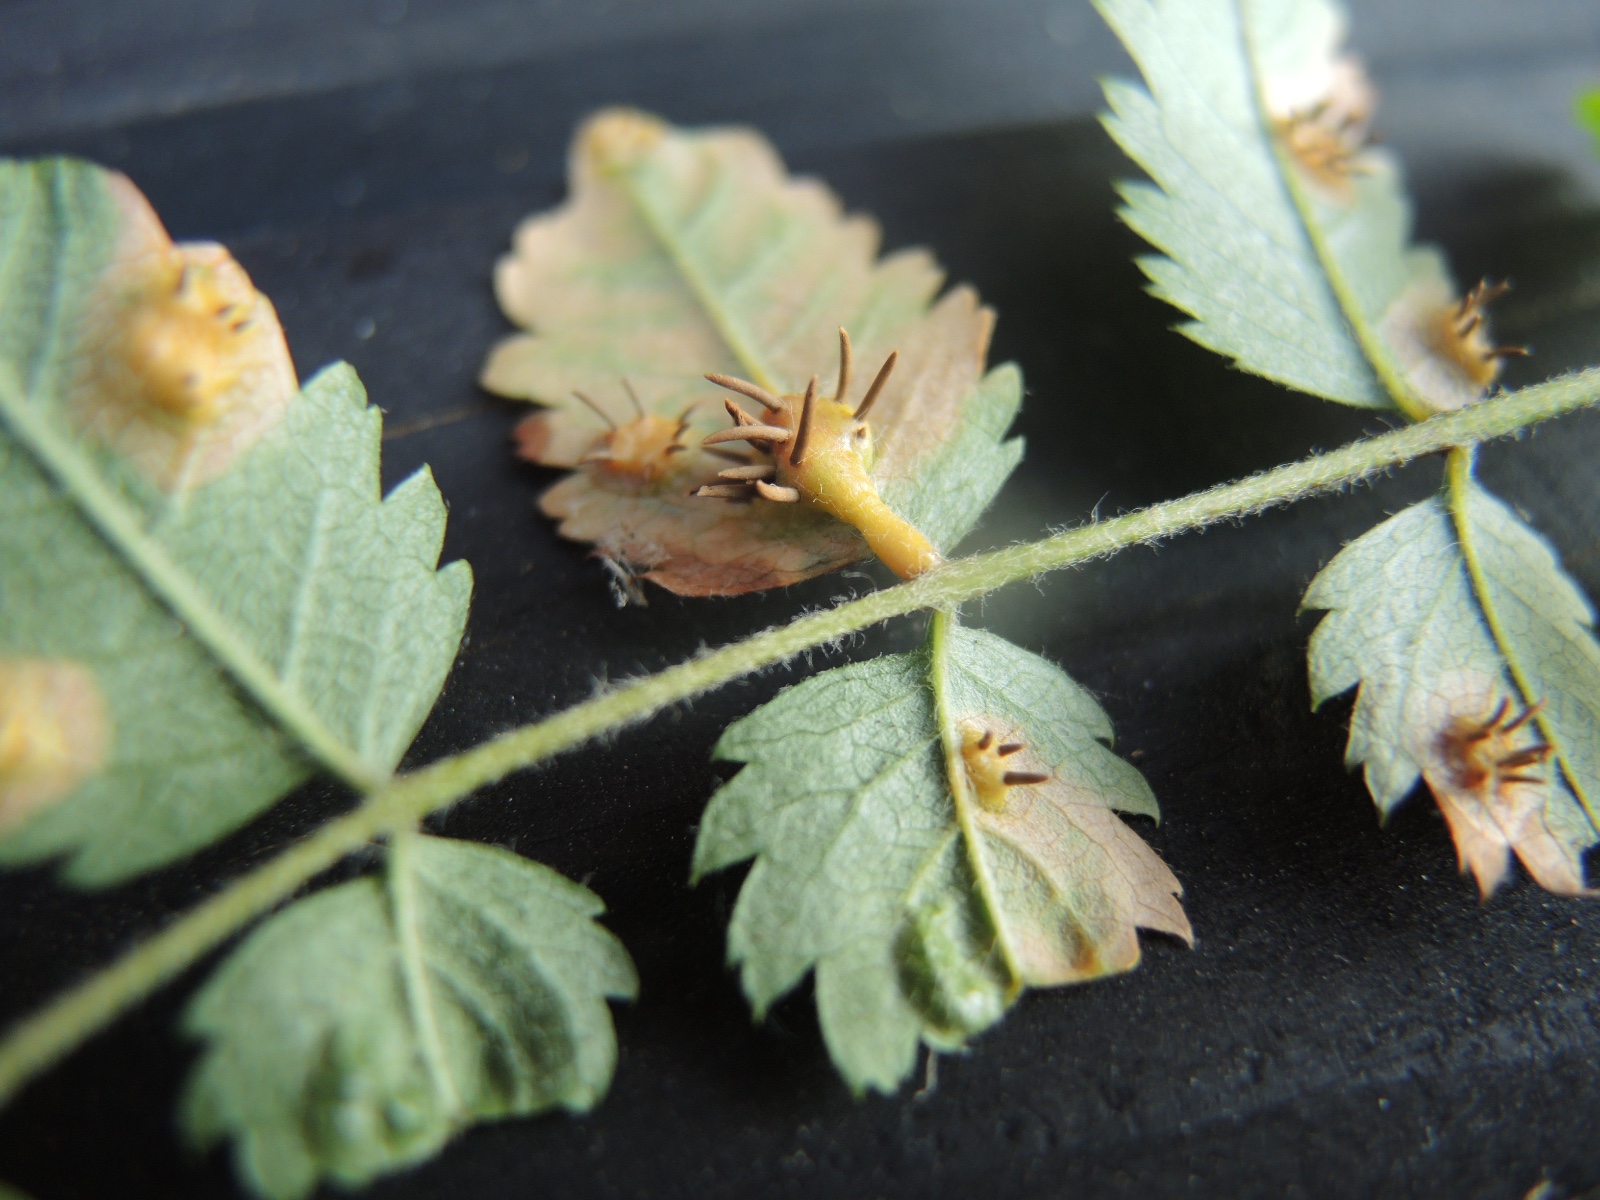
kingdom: Fungi
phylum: Basidiomycota
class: Pucciniomycetes
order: Pucciniales
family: Gymnosporangiaceae
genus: Gymnosporangium
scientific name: Gymnosporangium cornutum
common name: rønnehorn-bævrerust
